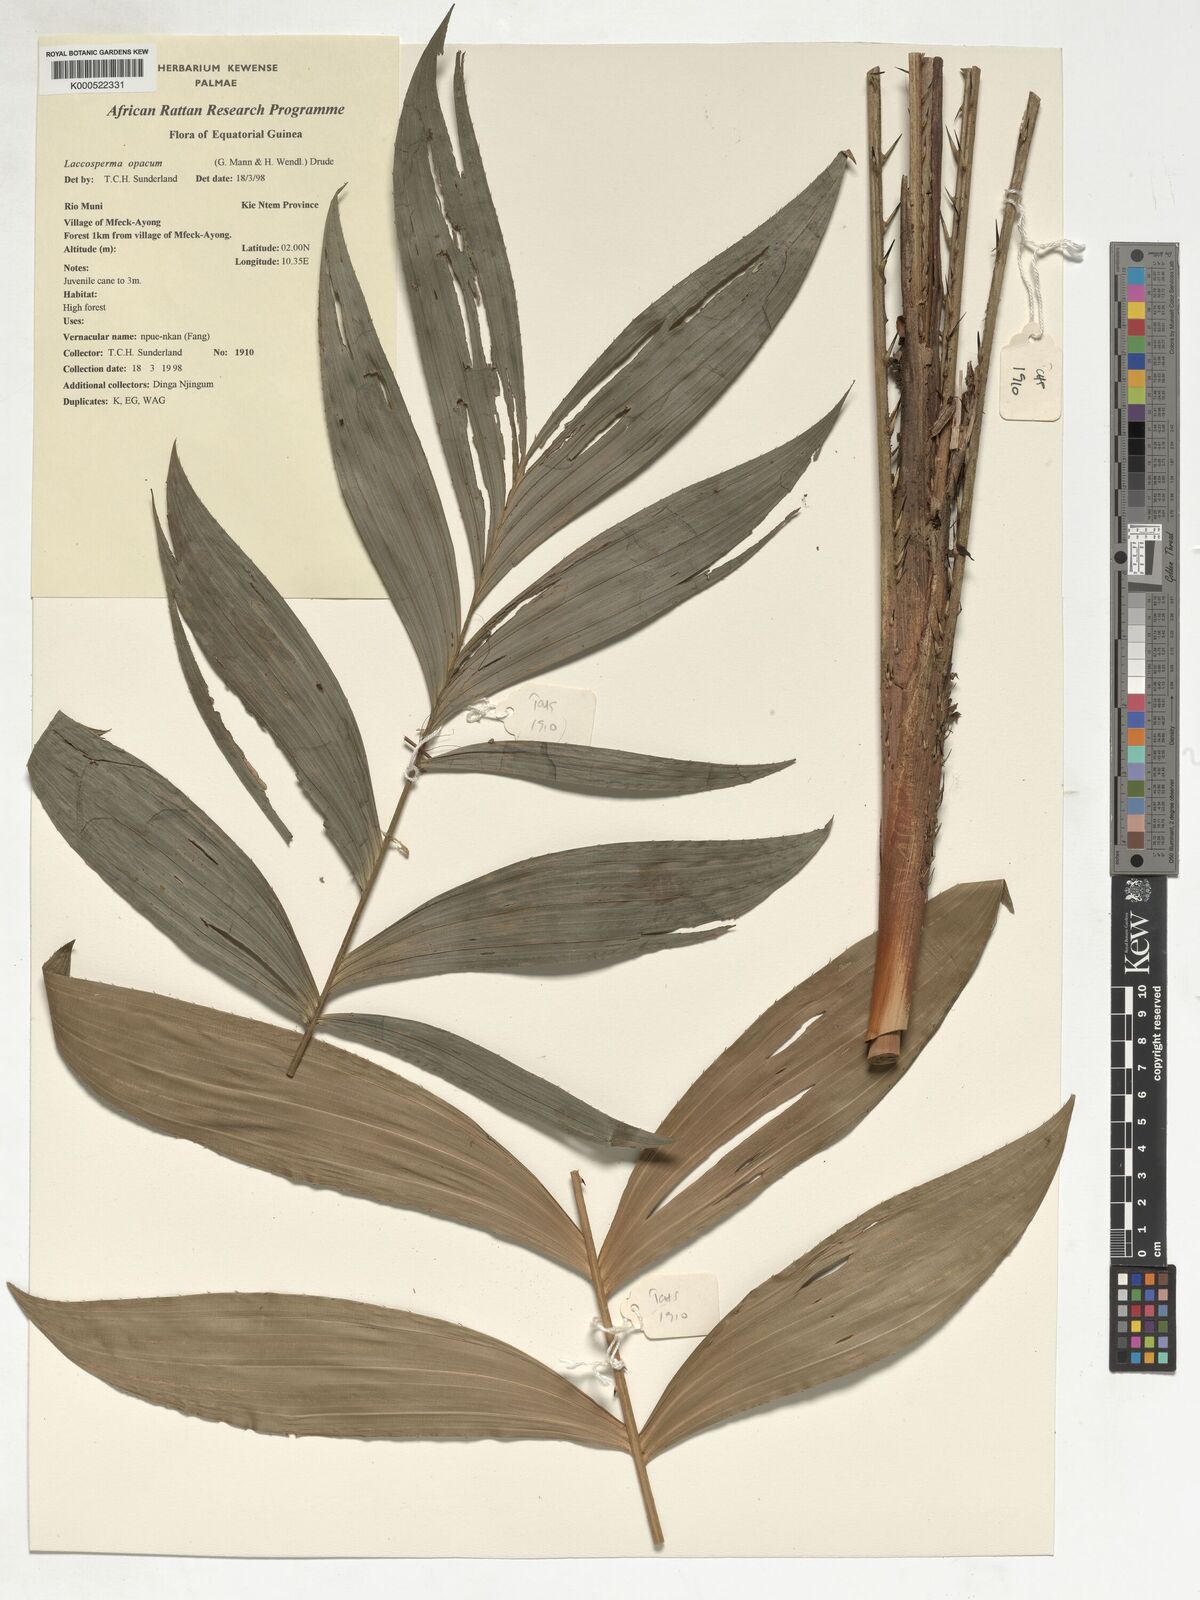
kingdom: Plantae
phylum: Tracheophyta
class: Liliopsida
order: Arecales
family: Arecaceae
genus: Laccosperma
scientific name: Laccosperma opacum
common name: Rattan
